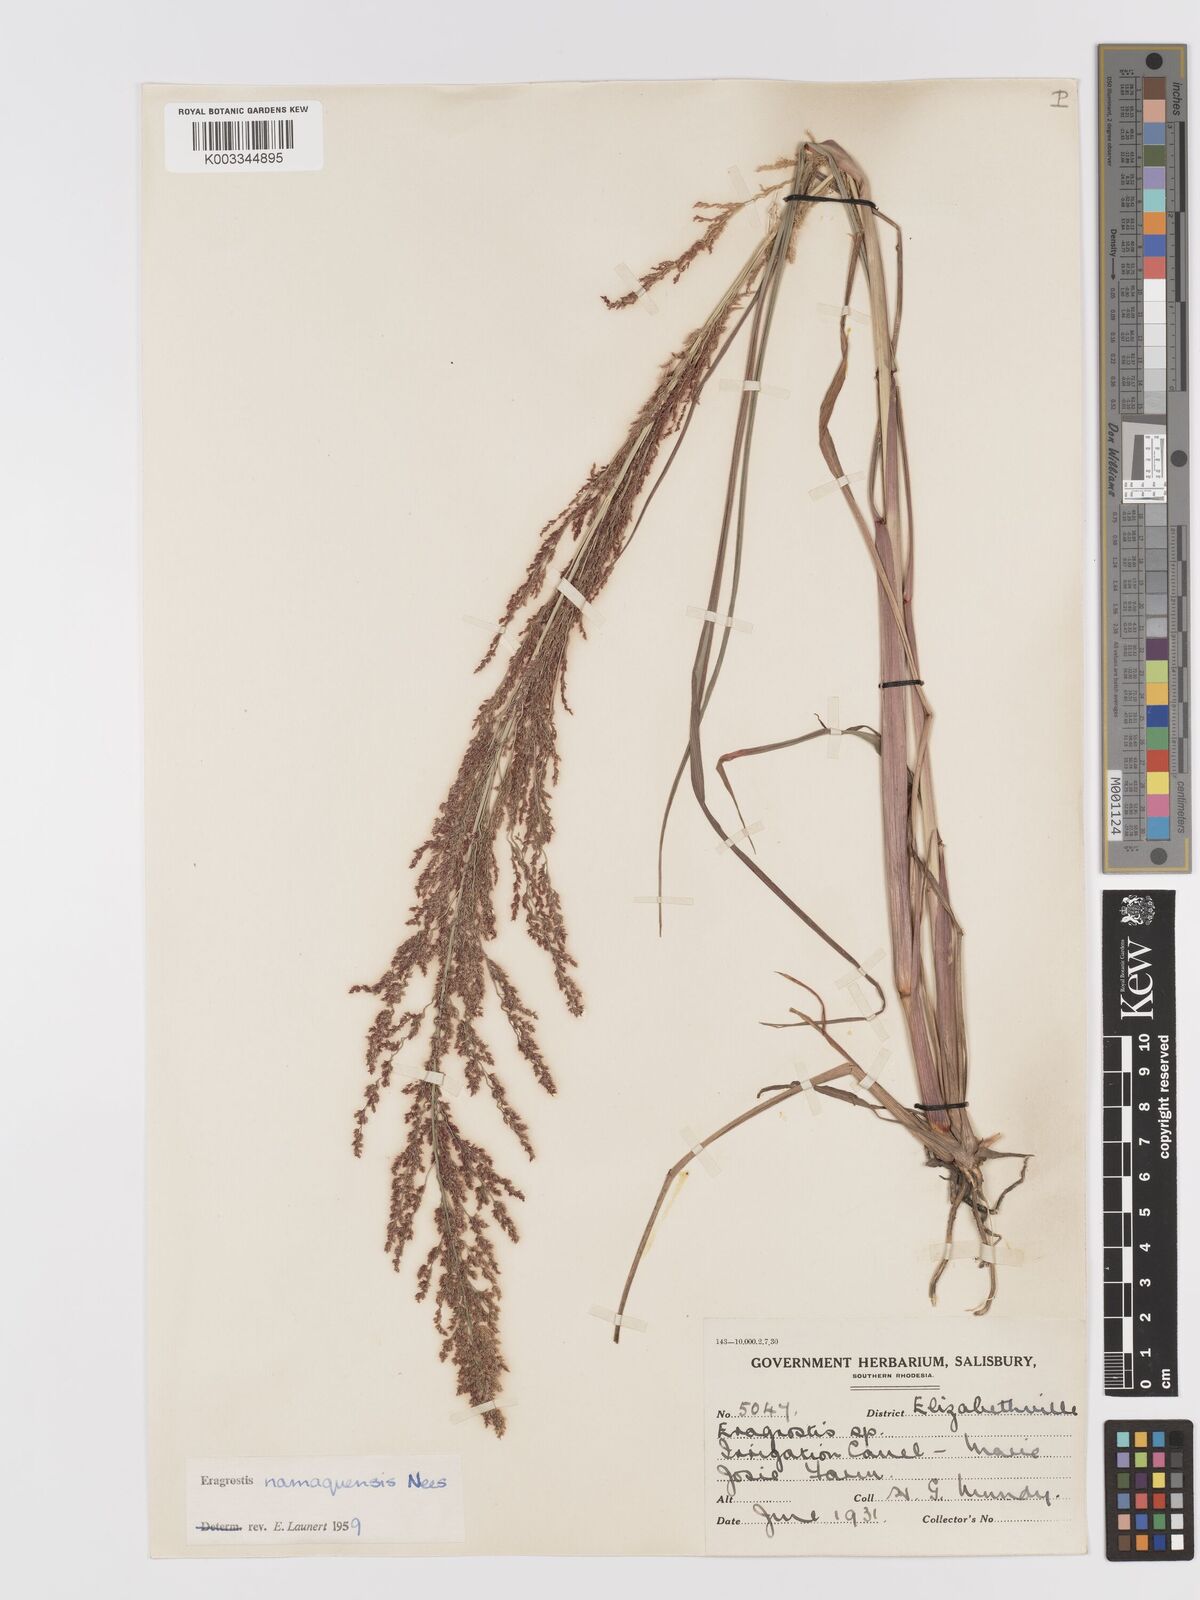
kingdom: Plantae
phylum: Tracheophyta
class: Liliopsida
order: Poales
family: Poaceae
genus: Eragrostis
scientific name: Eragrostis japonica
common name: Pond lovegrass
